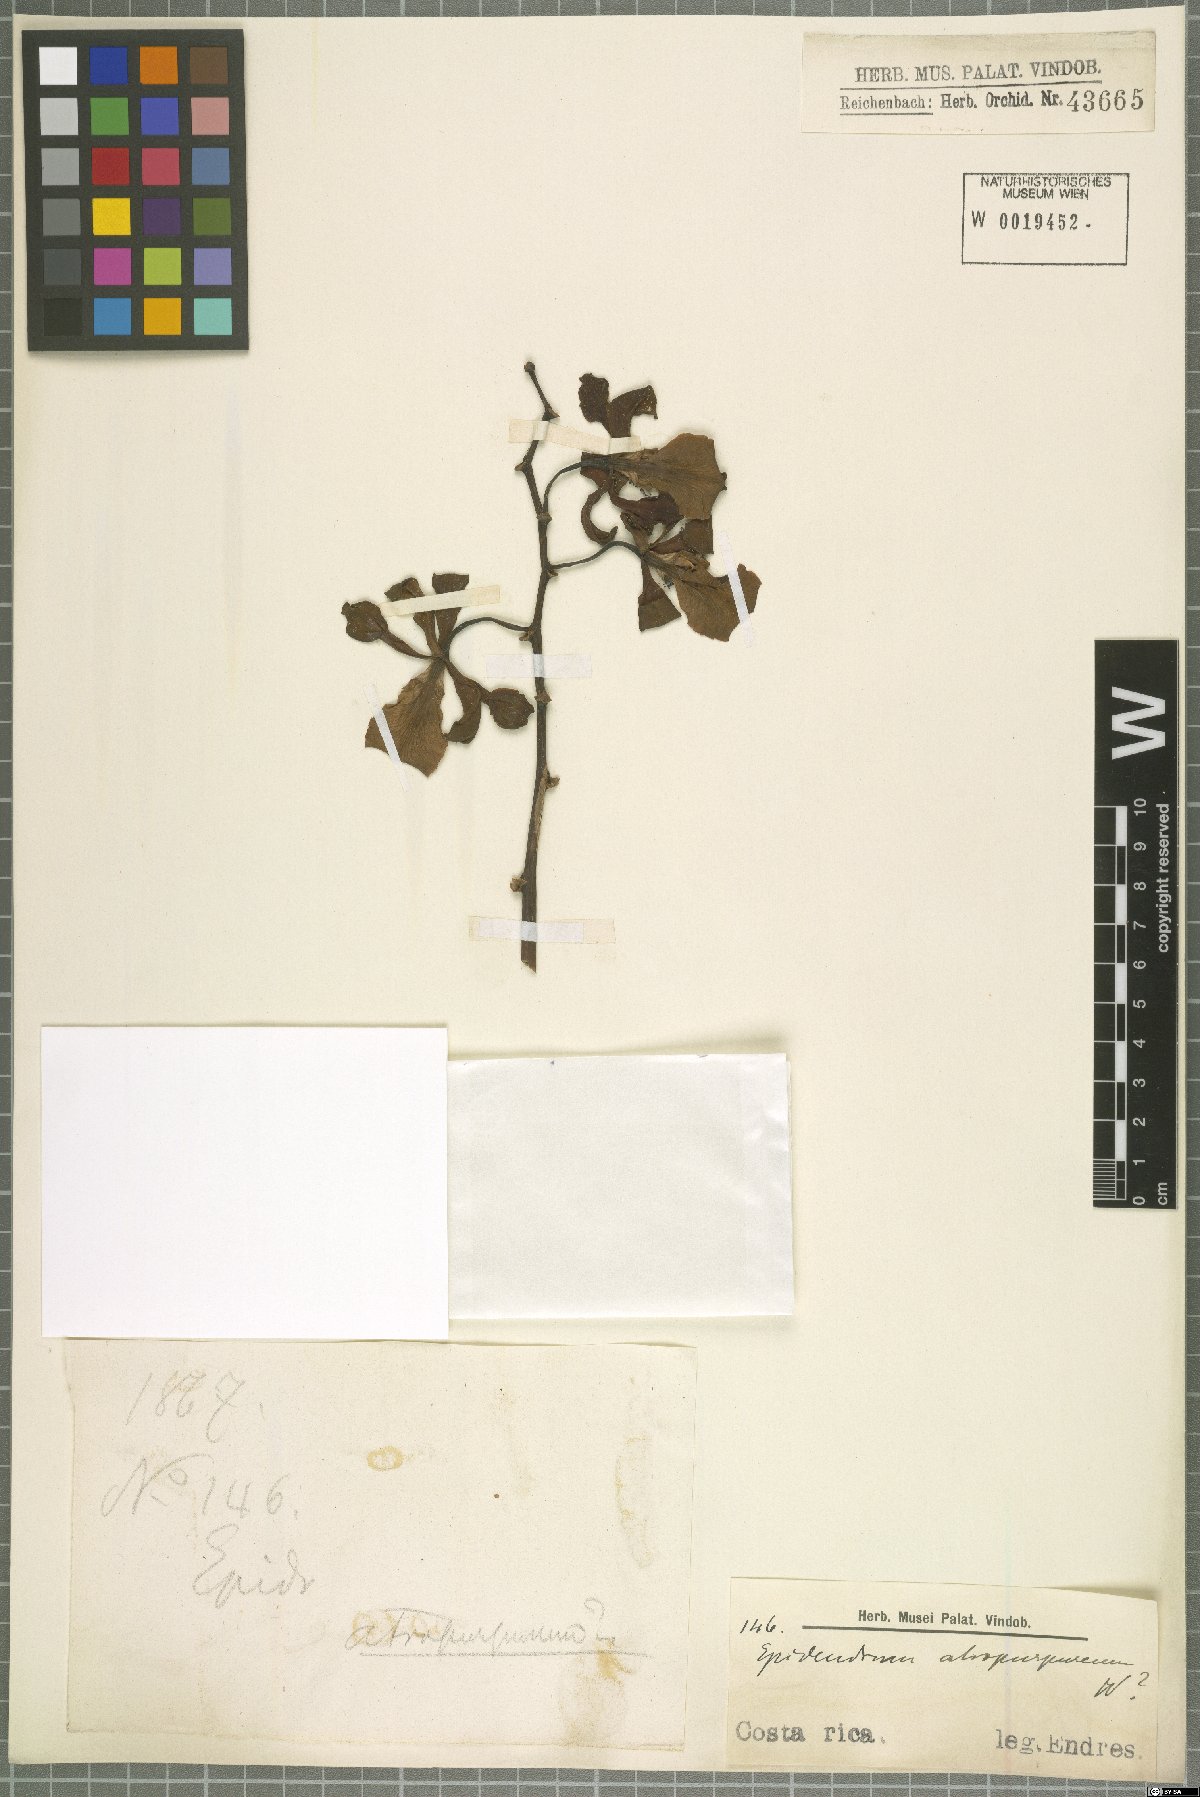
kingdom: Plantae
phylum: Tracheophyta
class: Liliopsida
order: Asparagales
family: Orchidaceae
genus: Encyclia
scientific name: Encyclia
